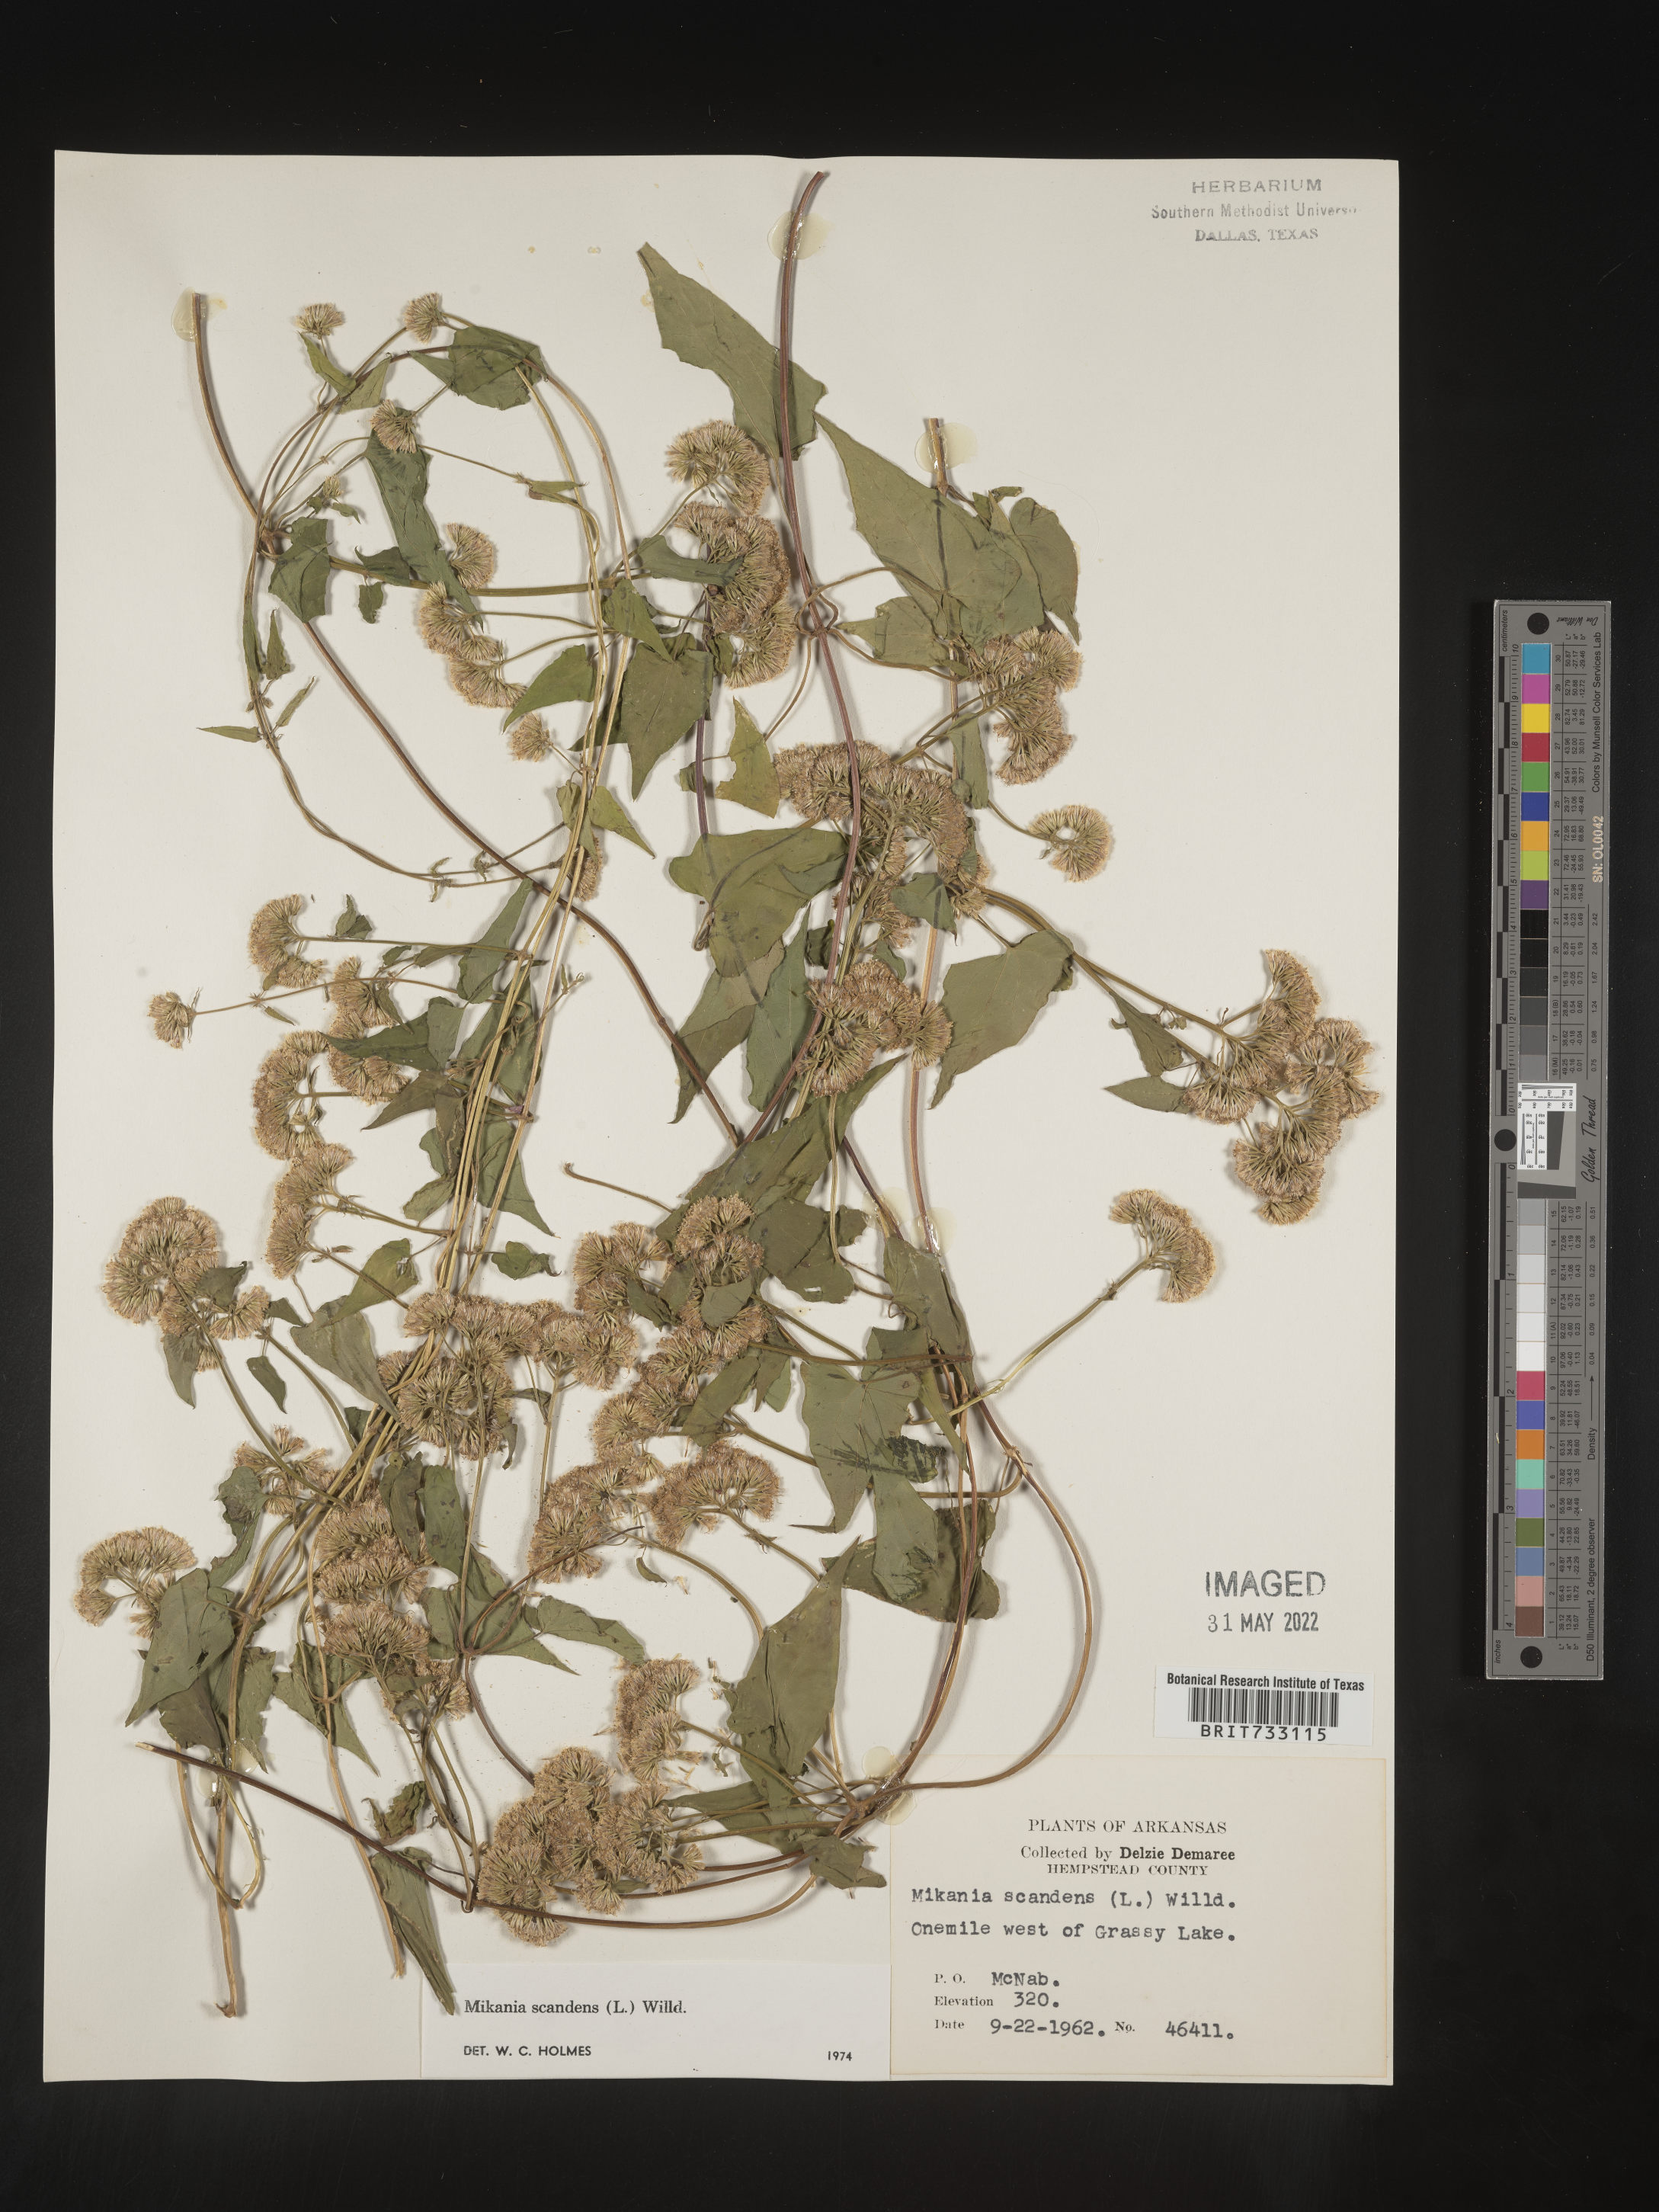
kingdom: Plantae
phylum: Tracheophyta
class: Magnoliopsida
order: Asterales
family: Asteraceae
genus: Mikania
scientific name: Mikania scandens
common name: Climbing hempvine
